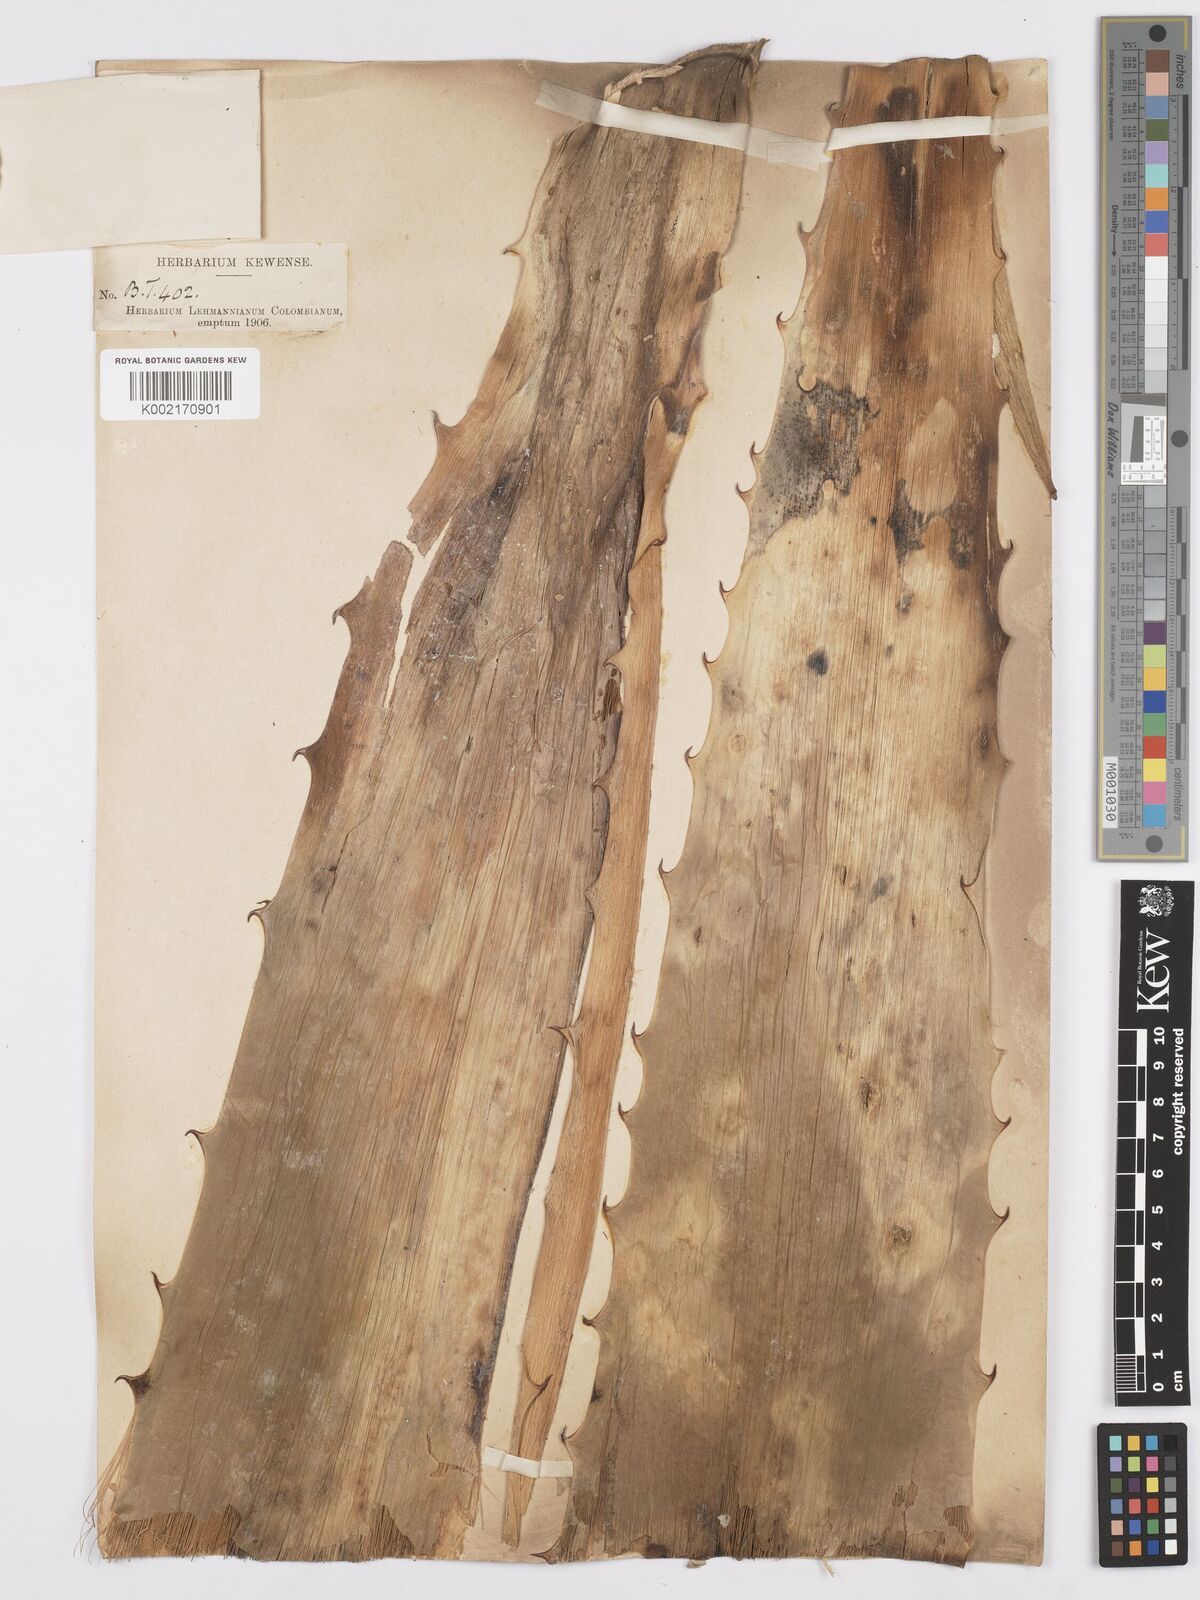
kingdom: Plantae
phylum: Tracheophyta
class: Liliopsida
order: Asparagales
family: Asparagaceae
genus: Furcraea
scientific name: Furcraea hexapetala
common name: Cuban-hemp
